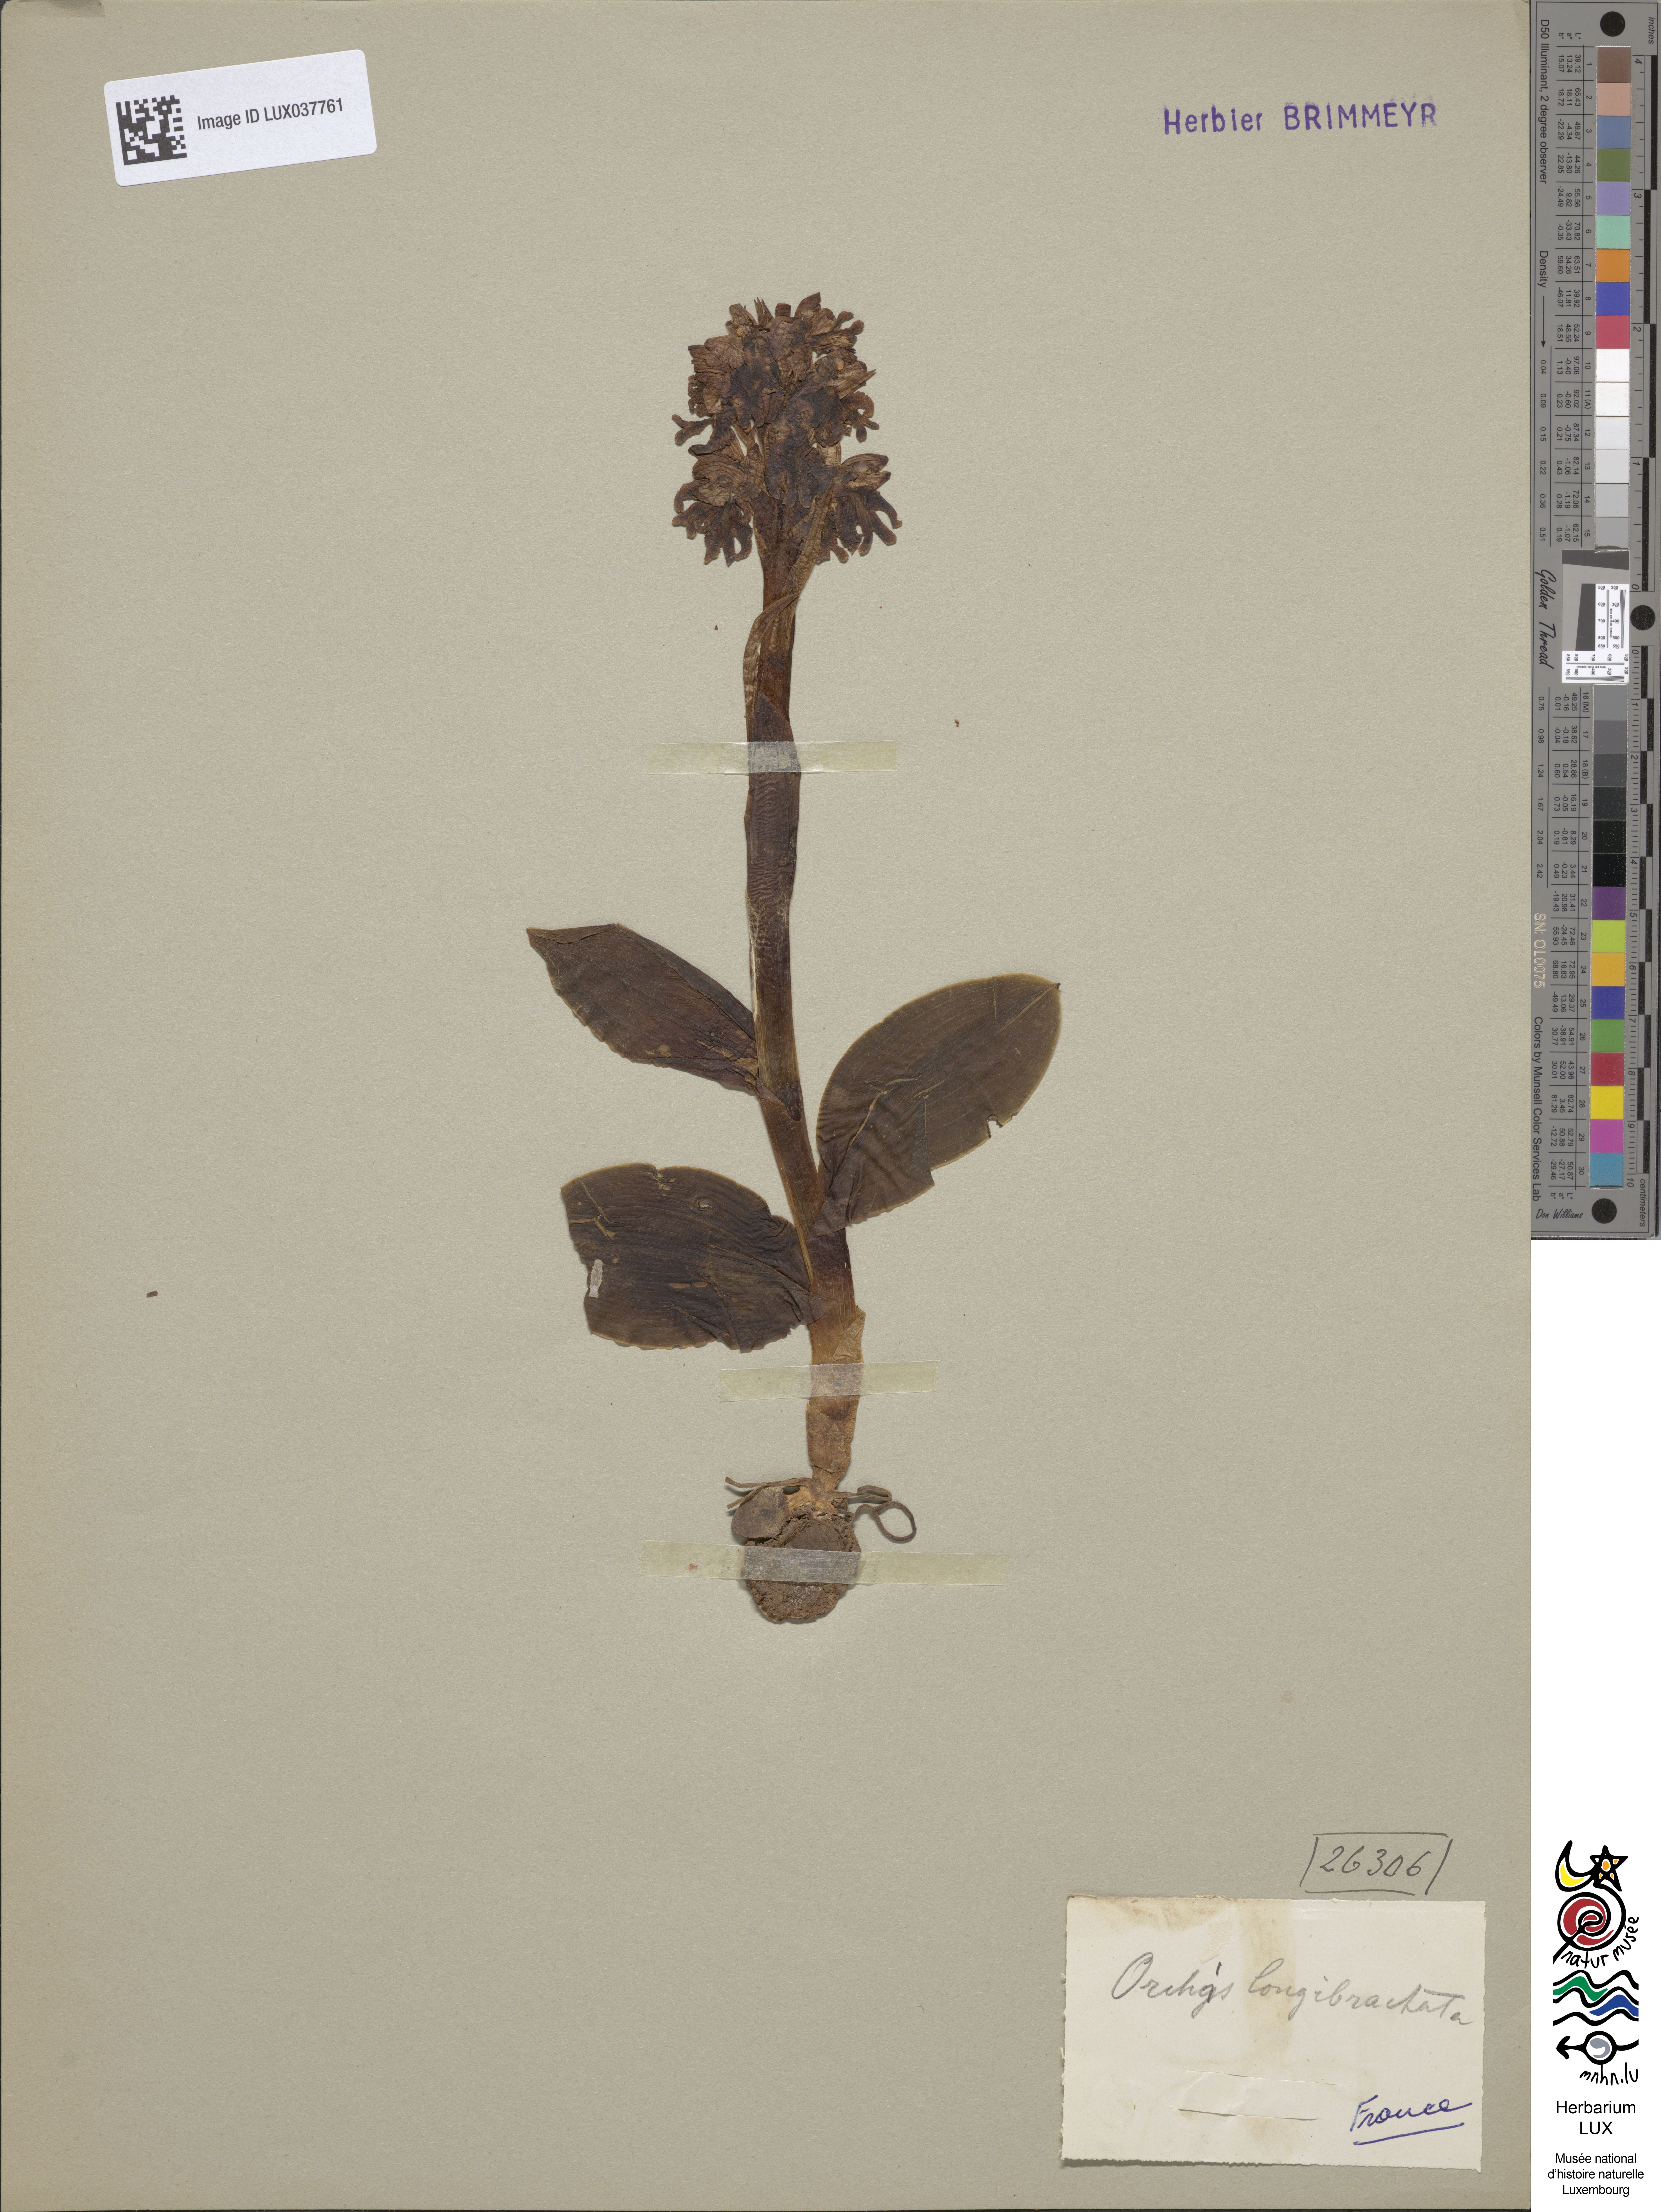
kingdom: Plantae
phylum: Tracheophyta
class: Liliopsida
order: Asparagales
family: Orchidaceae
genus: Himantoglossum
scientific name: Himantoglossum robertianum
